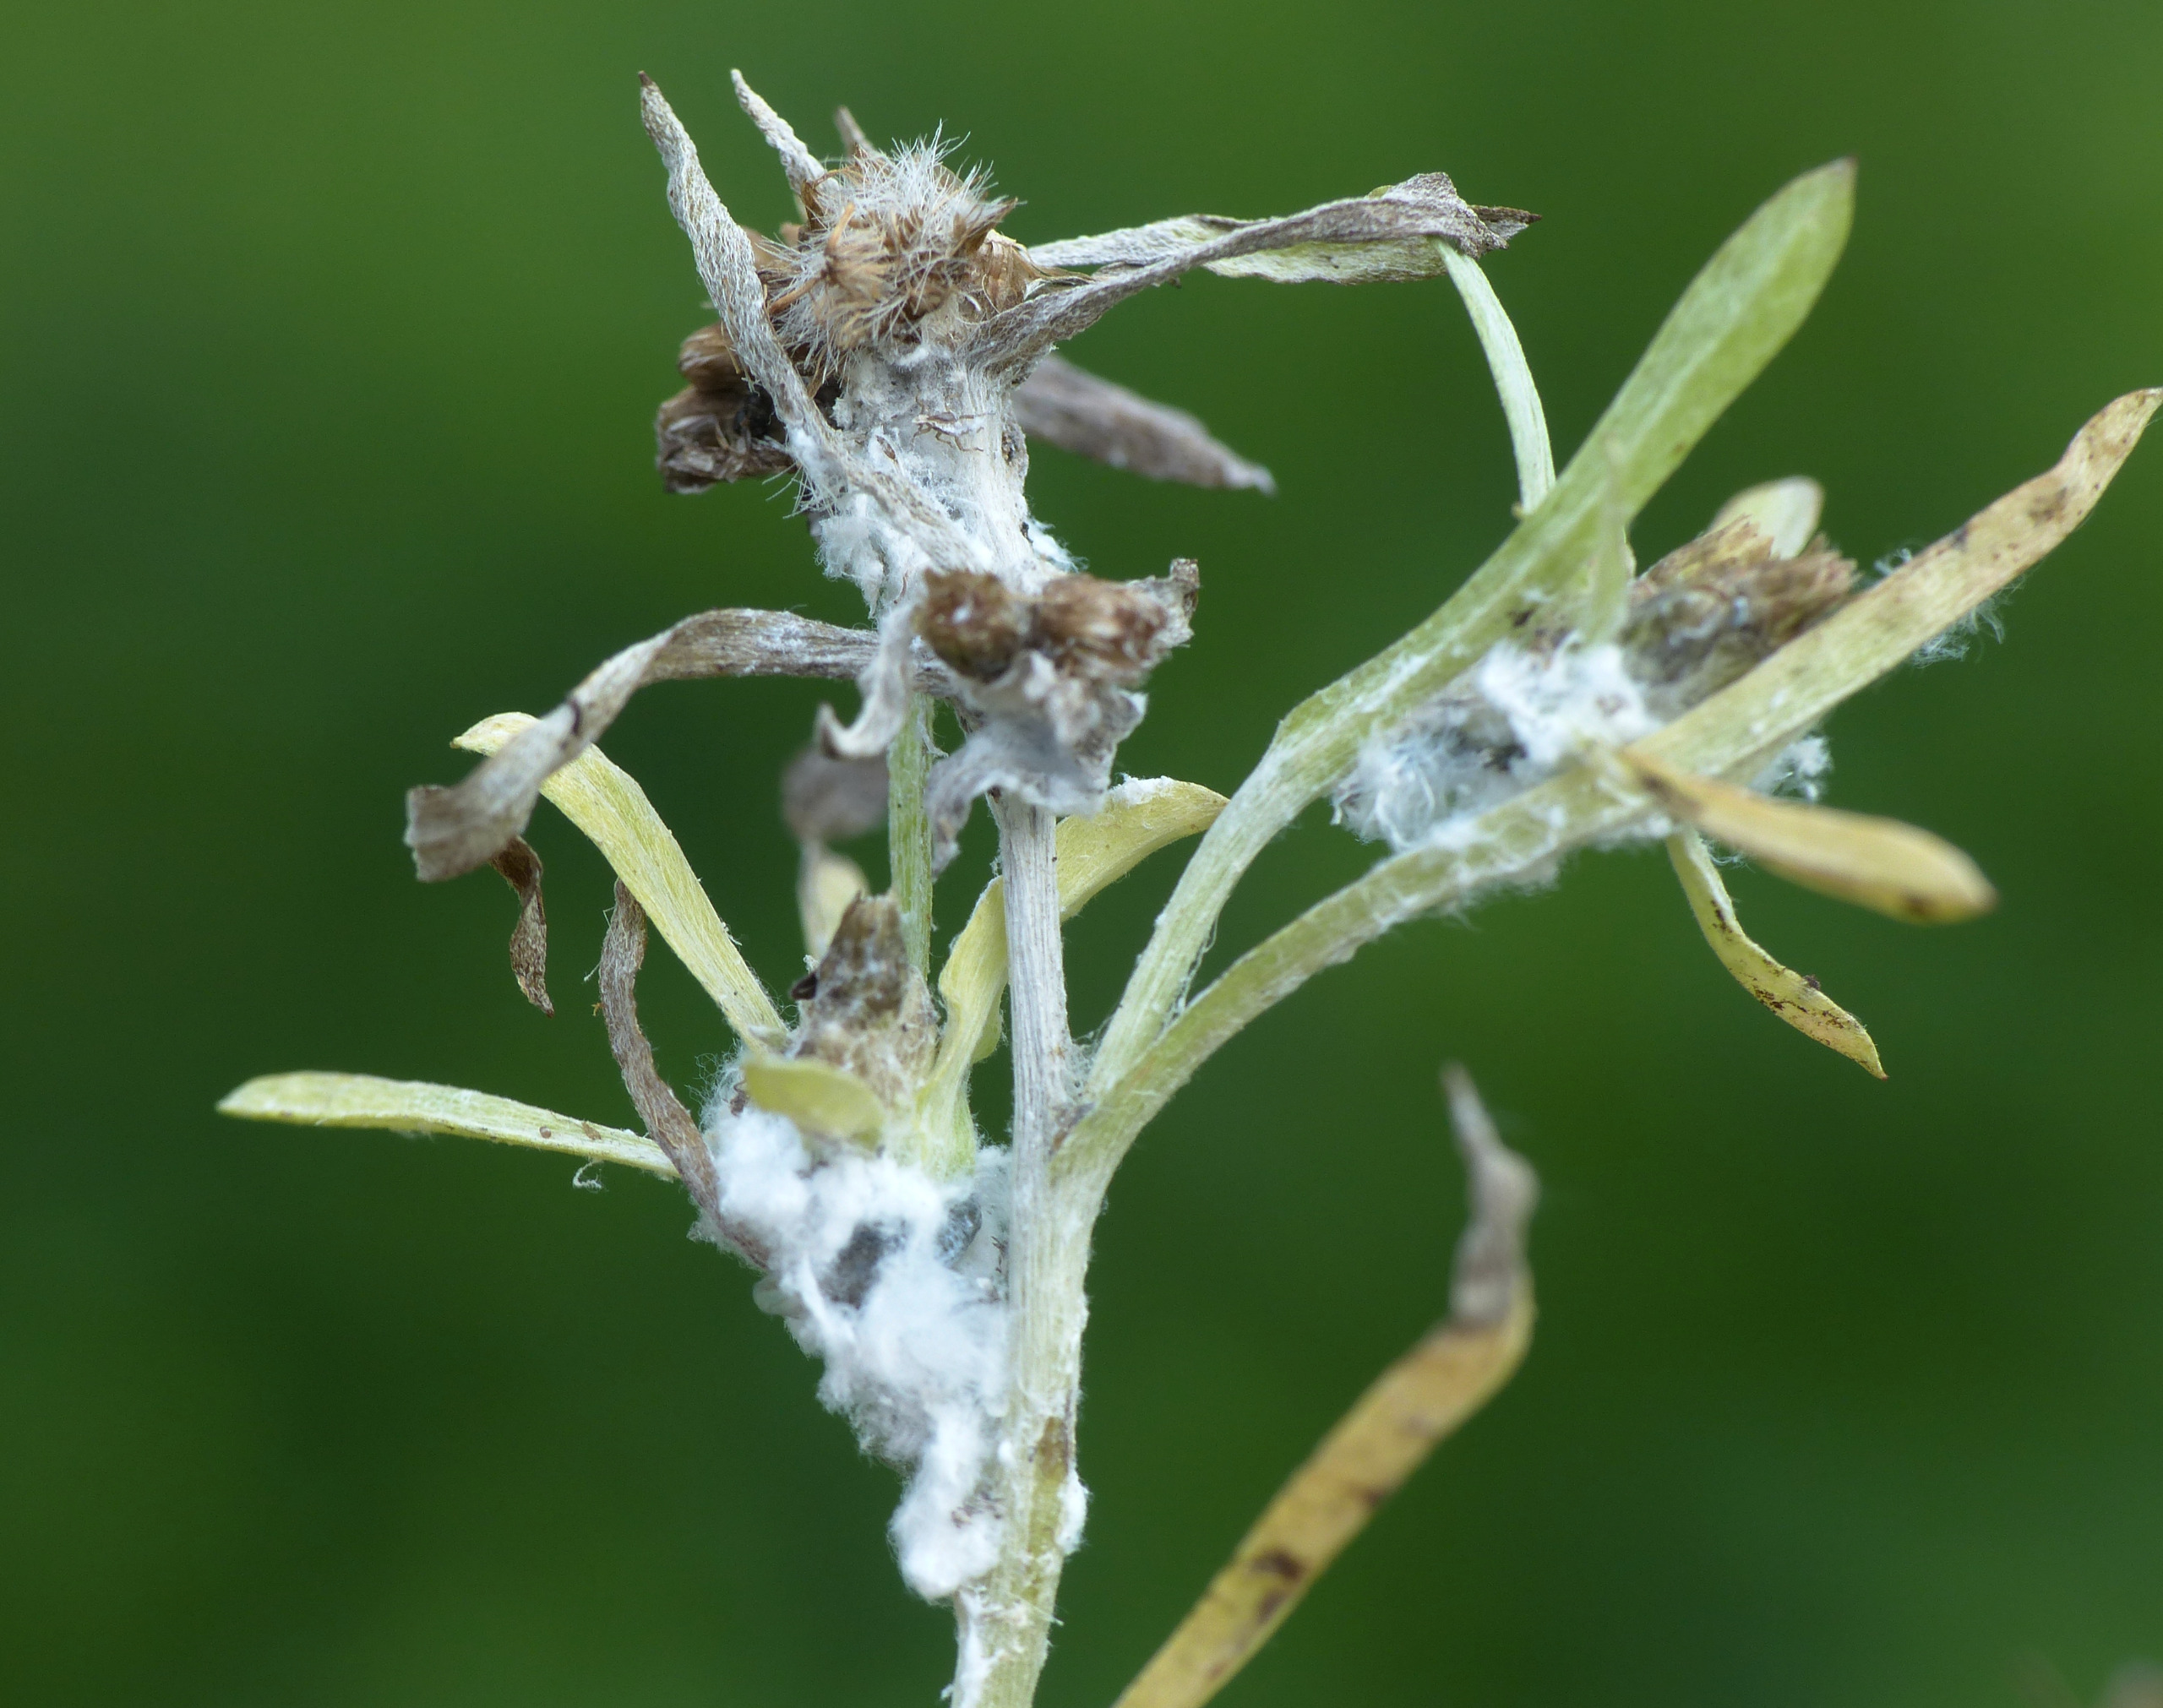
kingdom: Animalia
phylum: Arthropoda
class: Insecta
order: Hemiptera
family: Aphididae
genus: Pemphigus
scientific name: Pemphigus populinigrae
